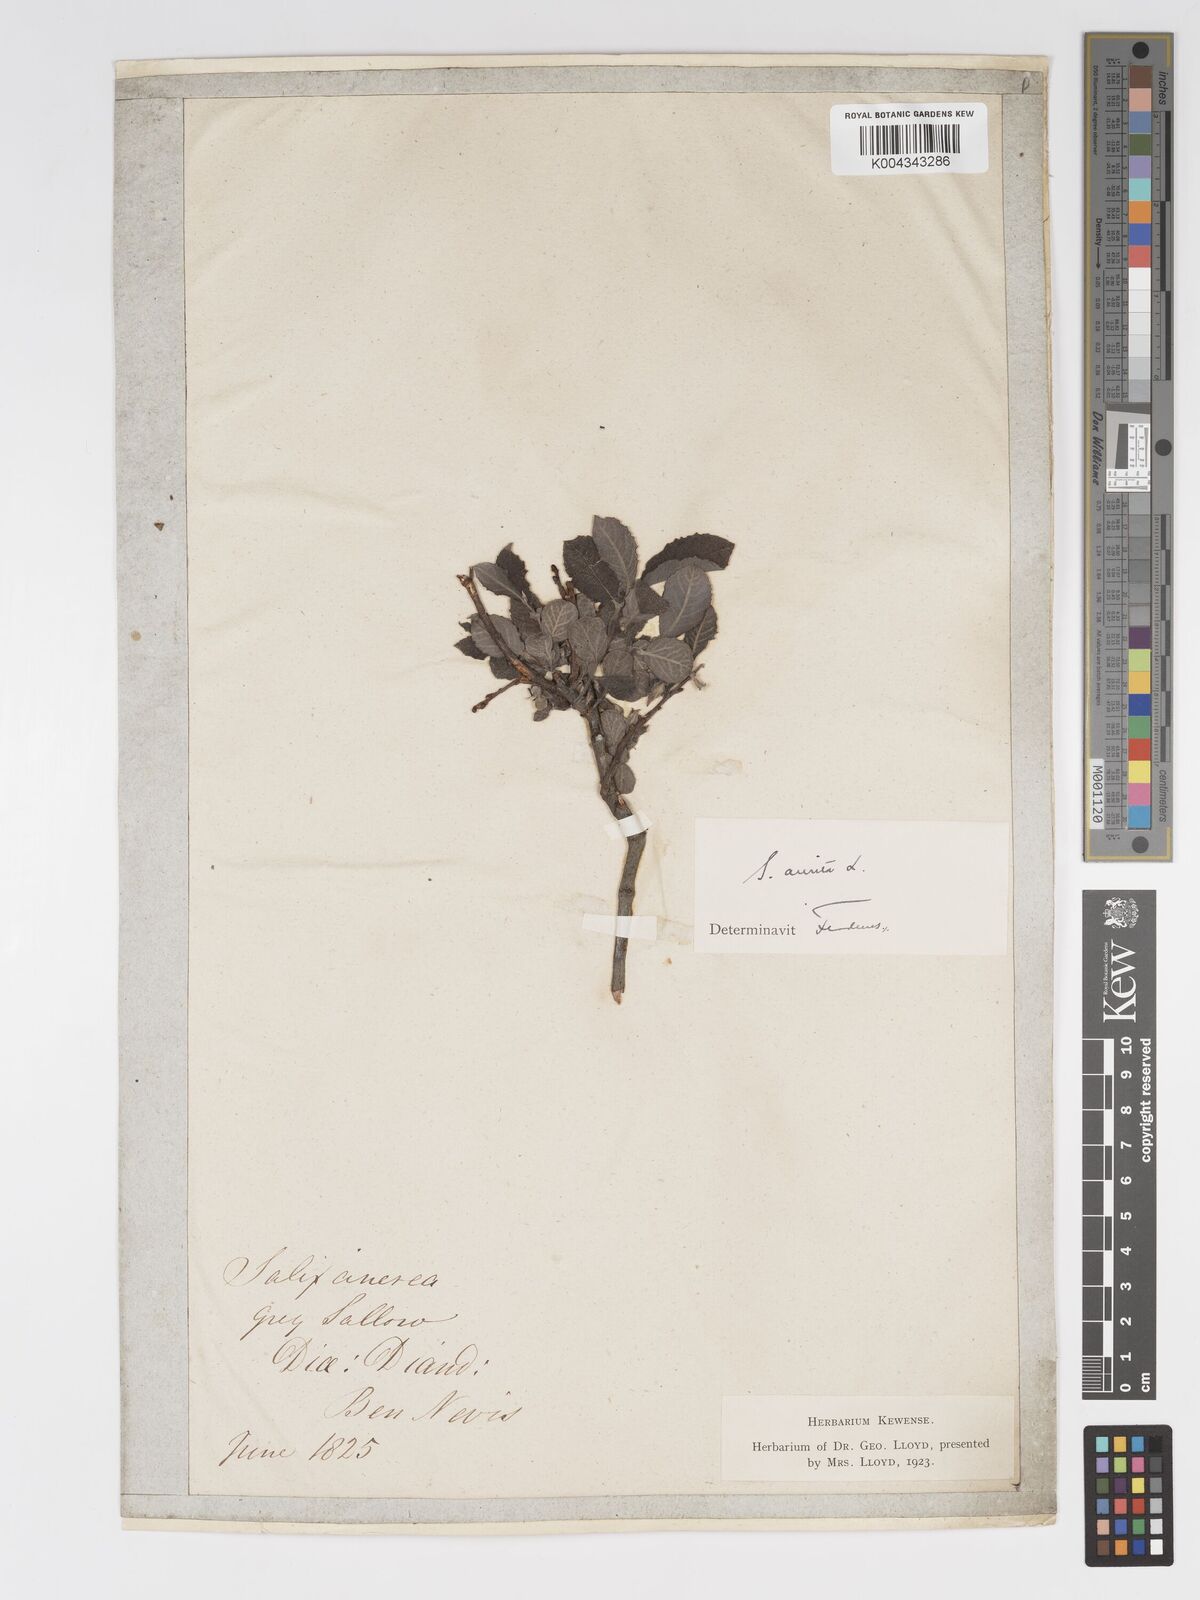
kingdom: Plantae
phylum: Tracheophyta
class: Magnoliopsida
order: Malpighiales
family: Salicaceae
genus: Salix
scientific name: Salix aurita
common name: Eared willow
